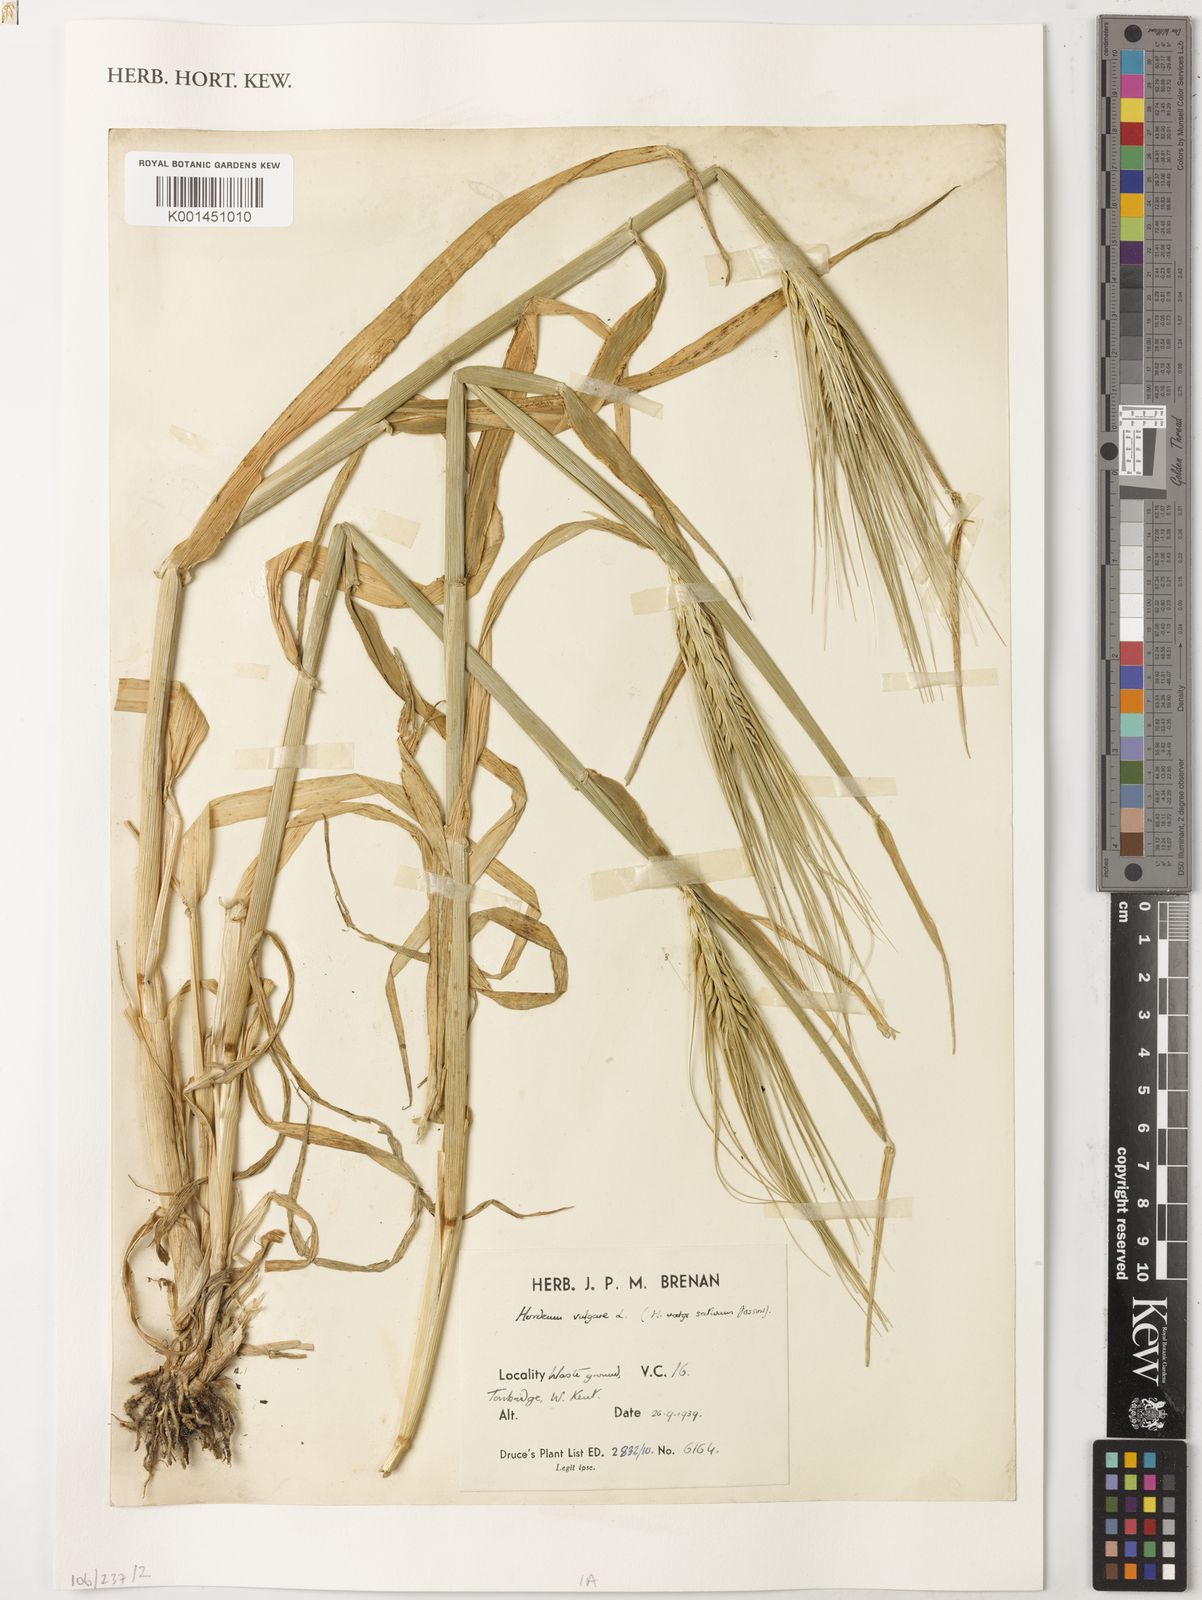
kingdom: Plantae
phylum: Tracheophyta
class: Liliopsida
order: Poales
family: Poaceae
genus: Hordeum
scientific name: Hordeum vulgare
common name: Common barley
